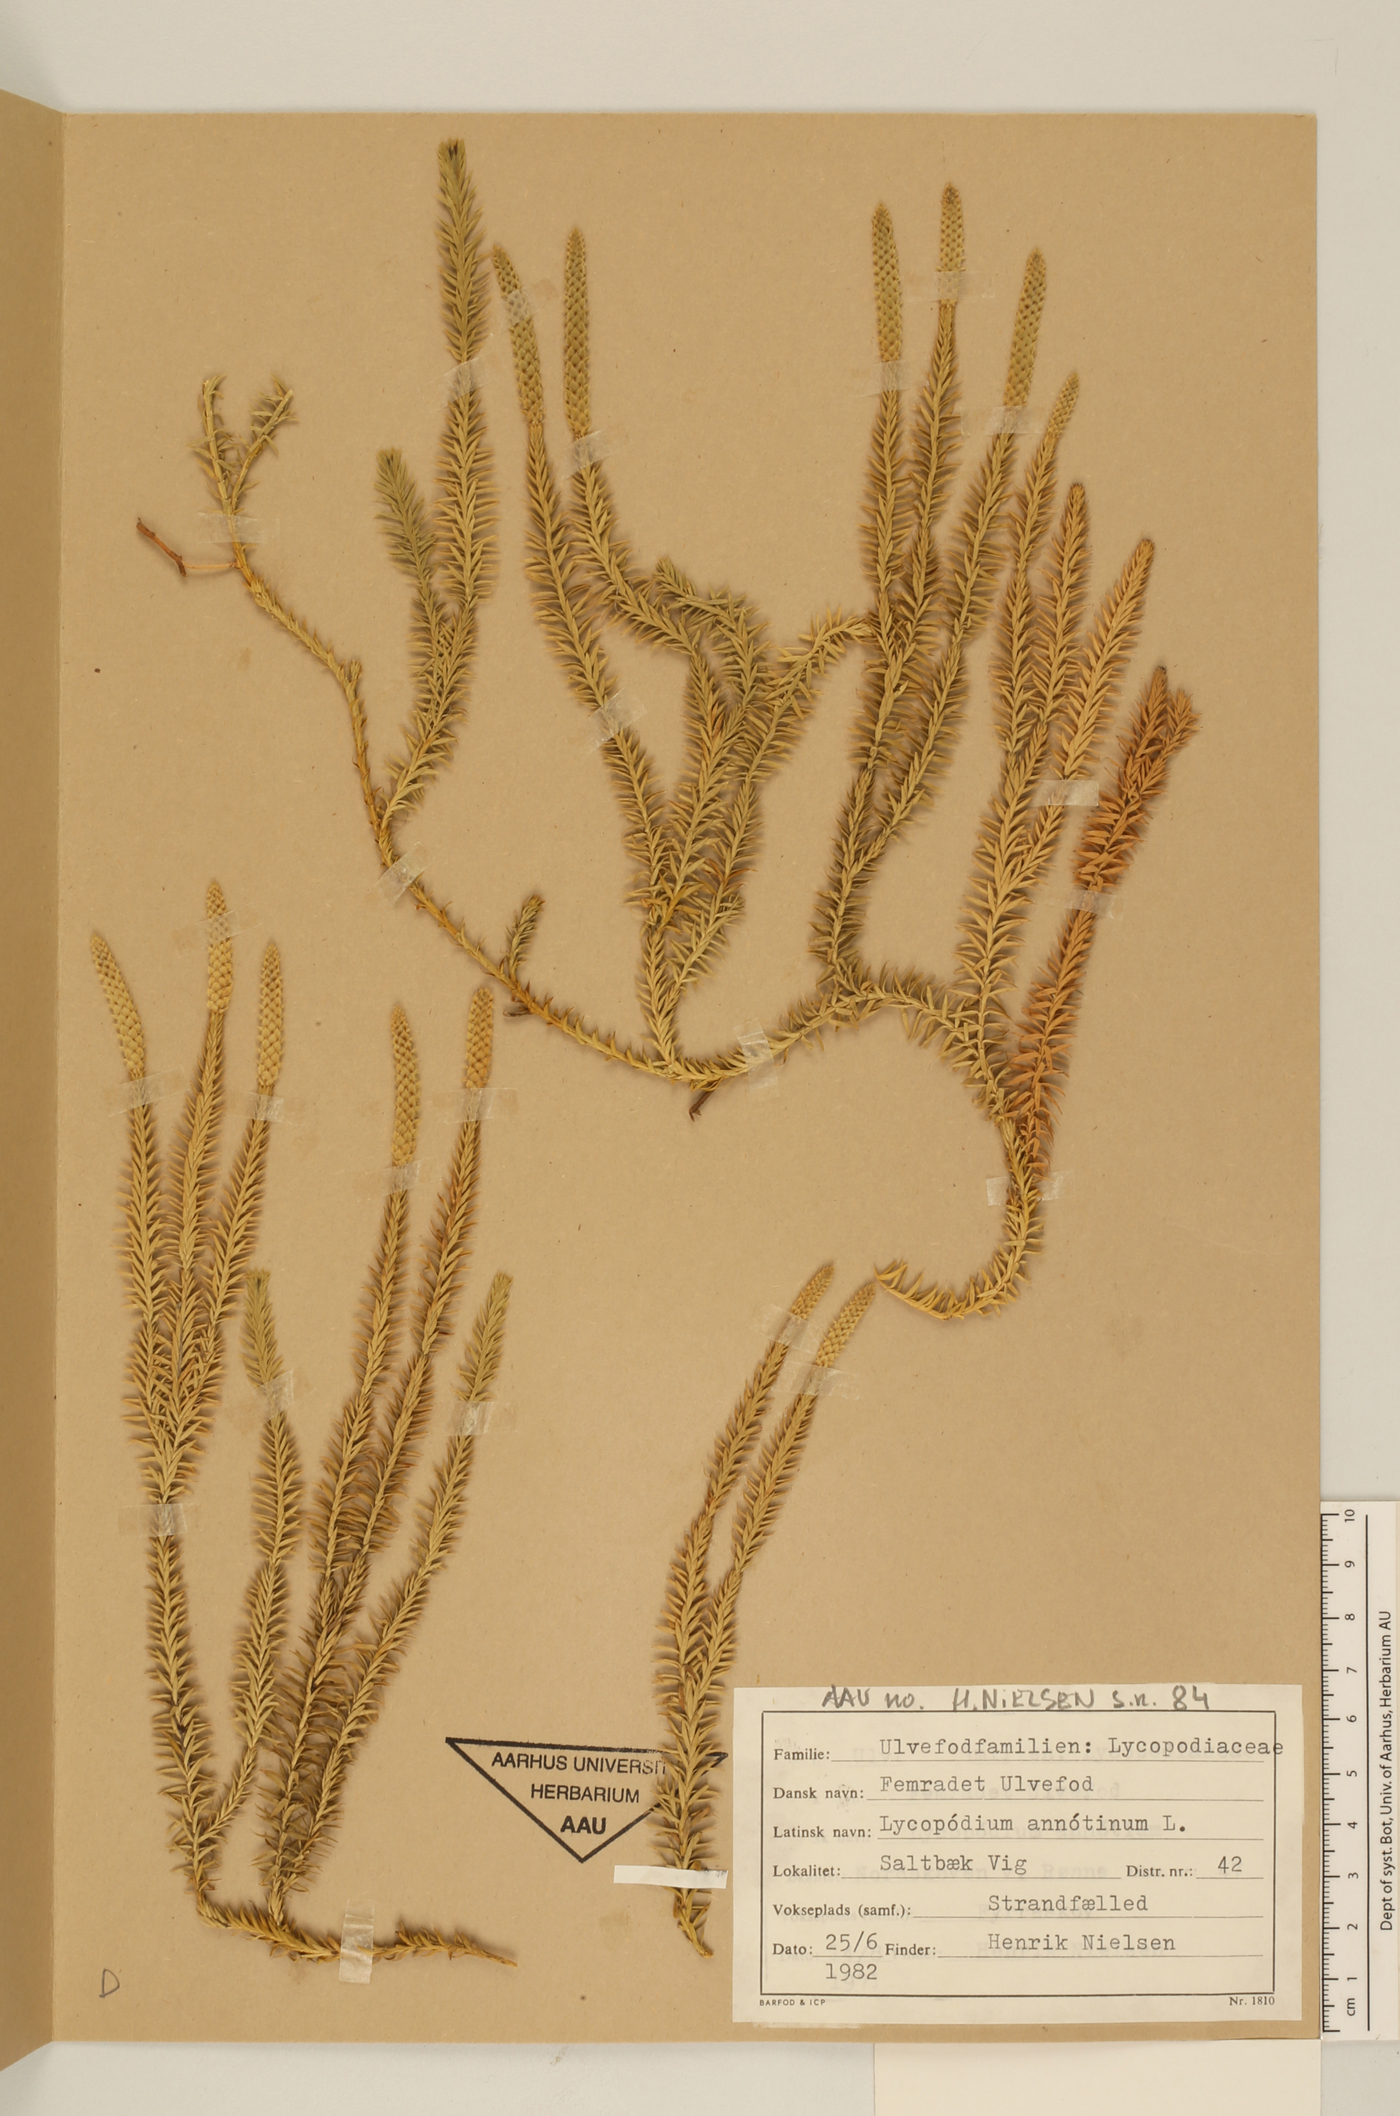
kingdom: Plantae
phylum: Tracheophyta
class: Lycopodiopsida
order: Lycopodiales
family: Lycopodiaceae
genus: Spinulum
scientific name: Spinulum annotinum
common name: Interrupted club-moss
